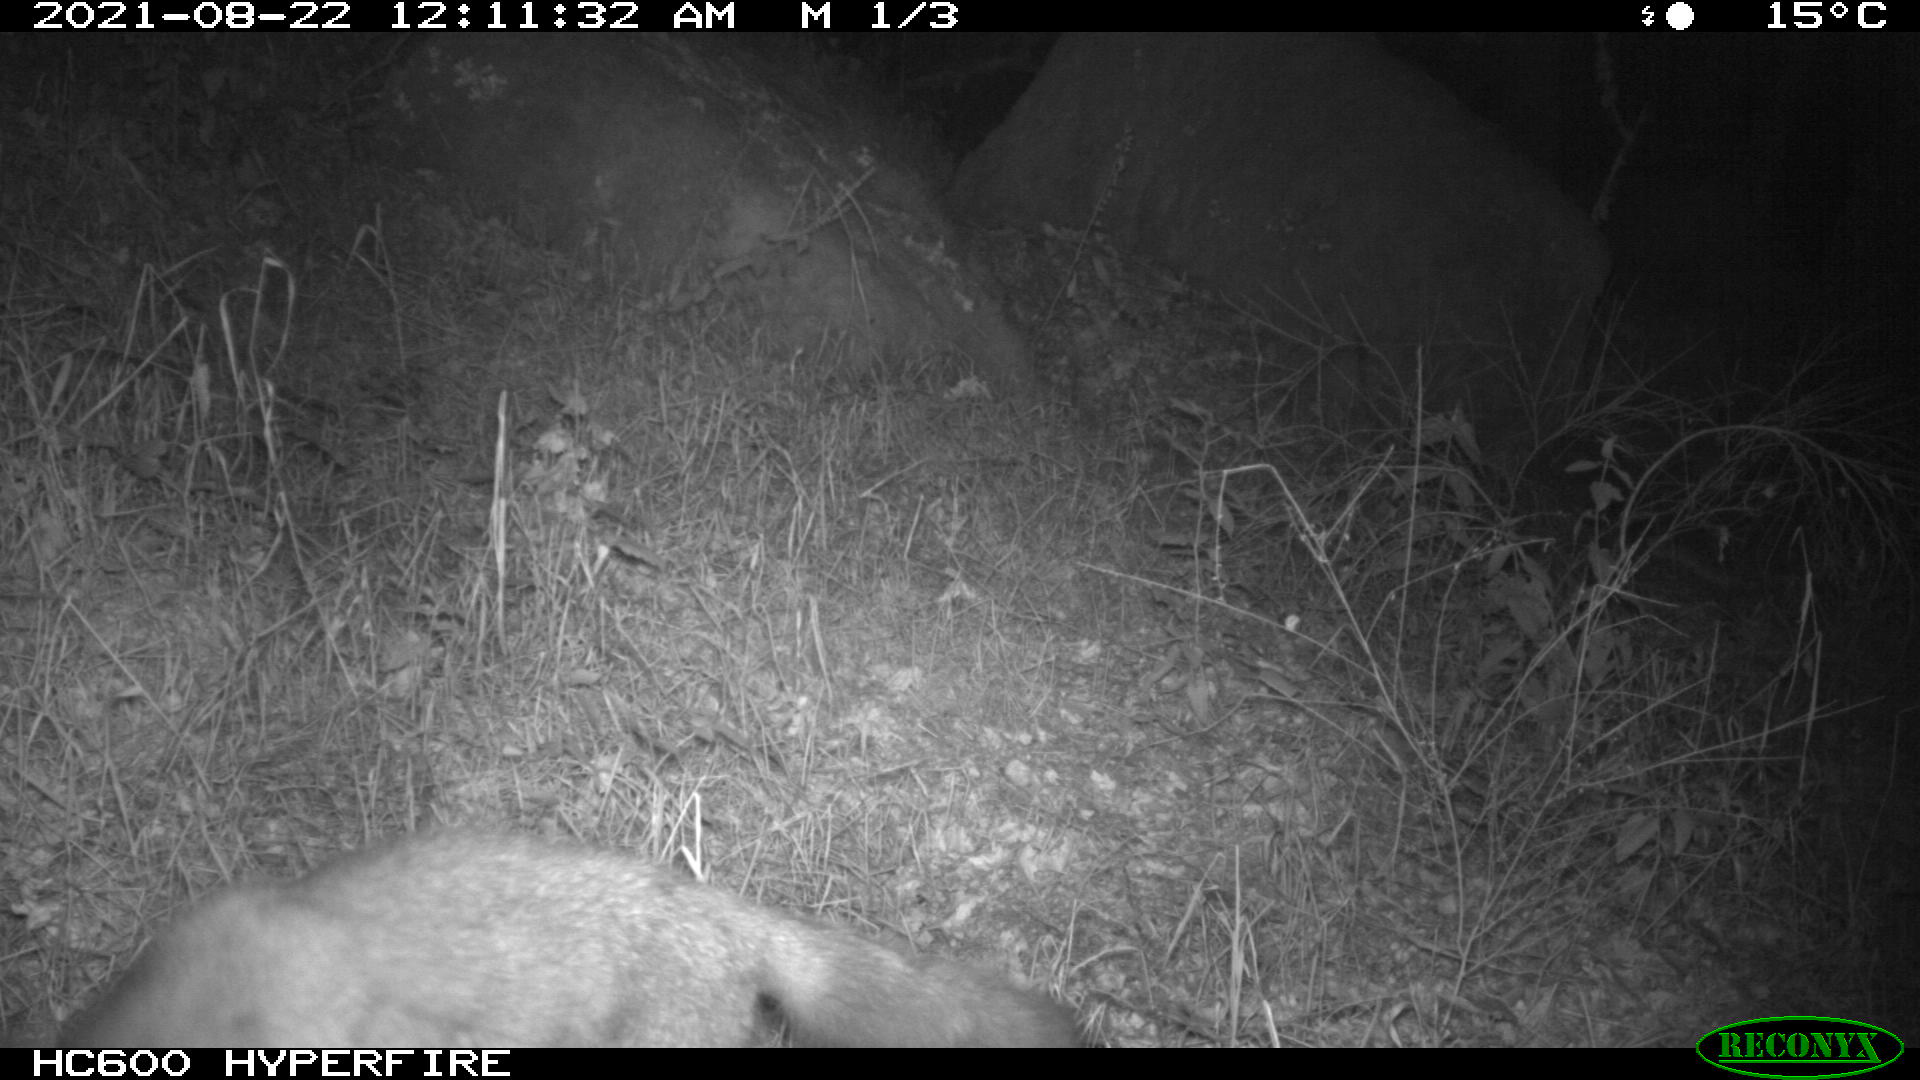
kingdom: Animalia
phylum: Chordata
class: Mammalia
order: Carnivora
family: Canidae
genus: Vulpes
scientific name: Vulpes vulpes
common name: Red fox
